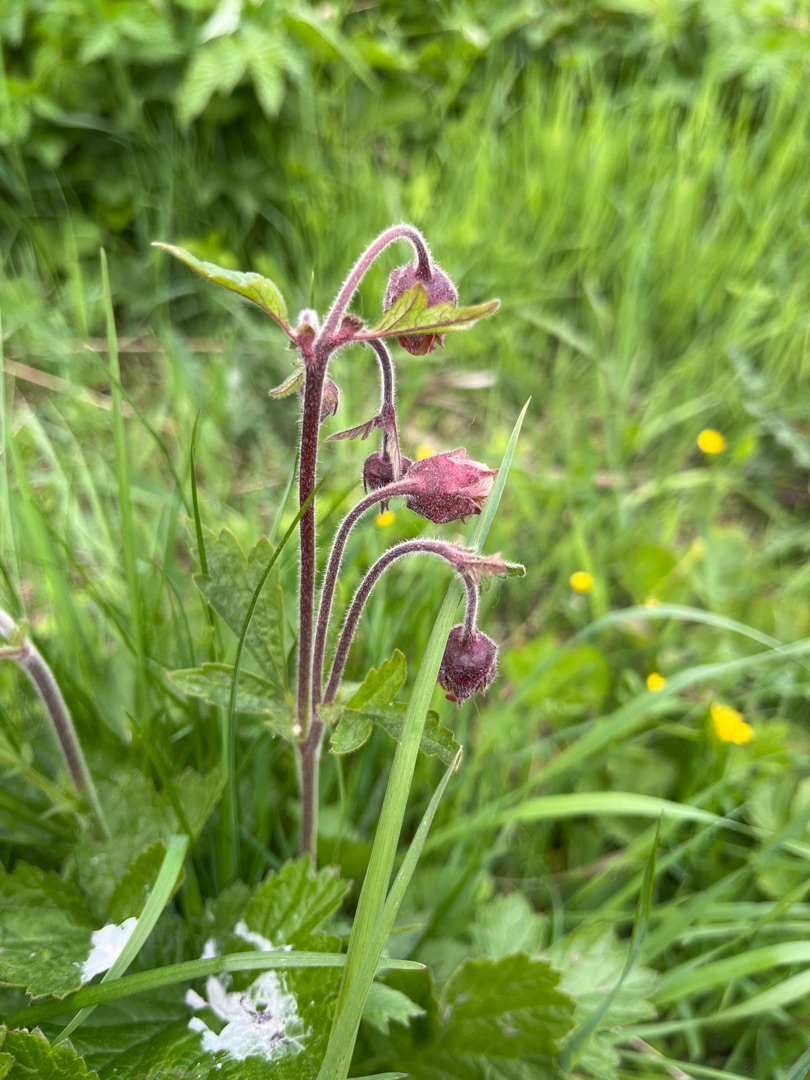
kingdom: Plantae
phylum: Tracheophyta
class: Magnoliopsida
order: Rosales
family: Rosaceae
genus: Geum
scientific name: Geum rivale
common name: Eng-nellikerod
